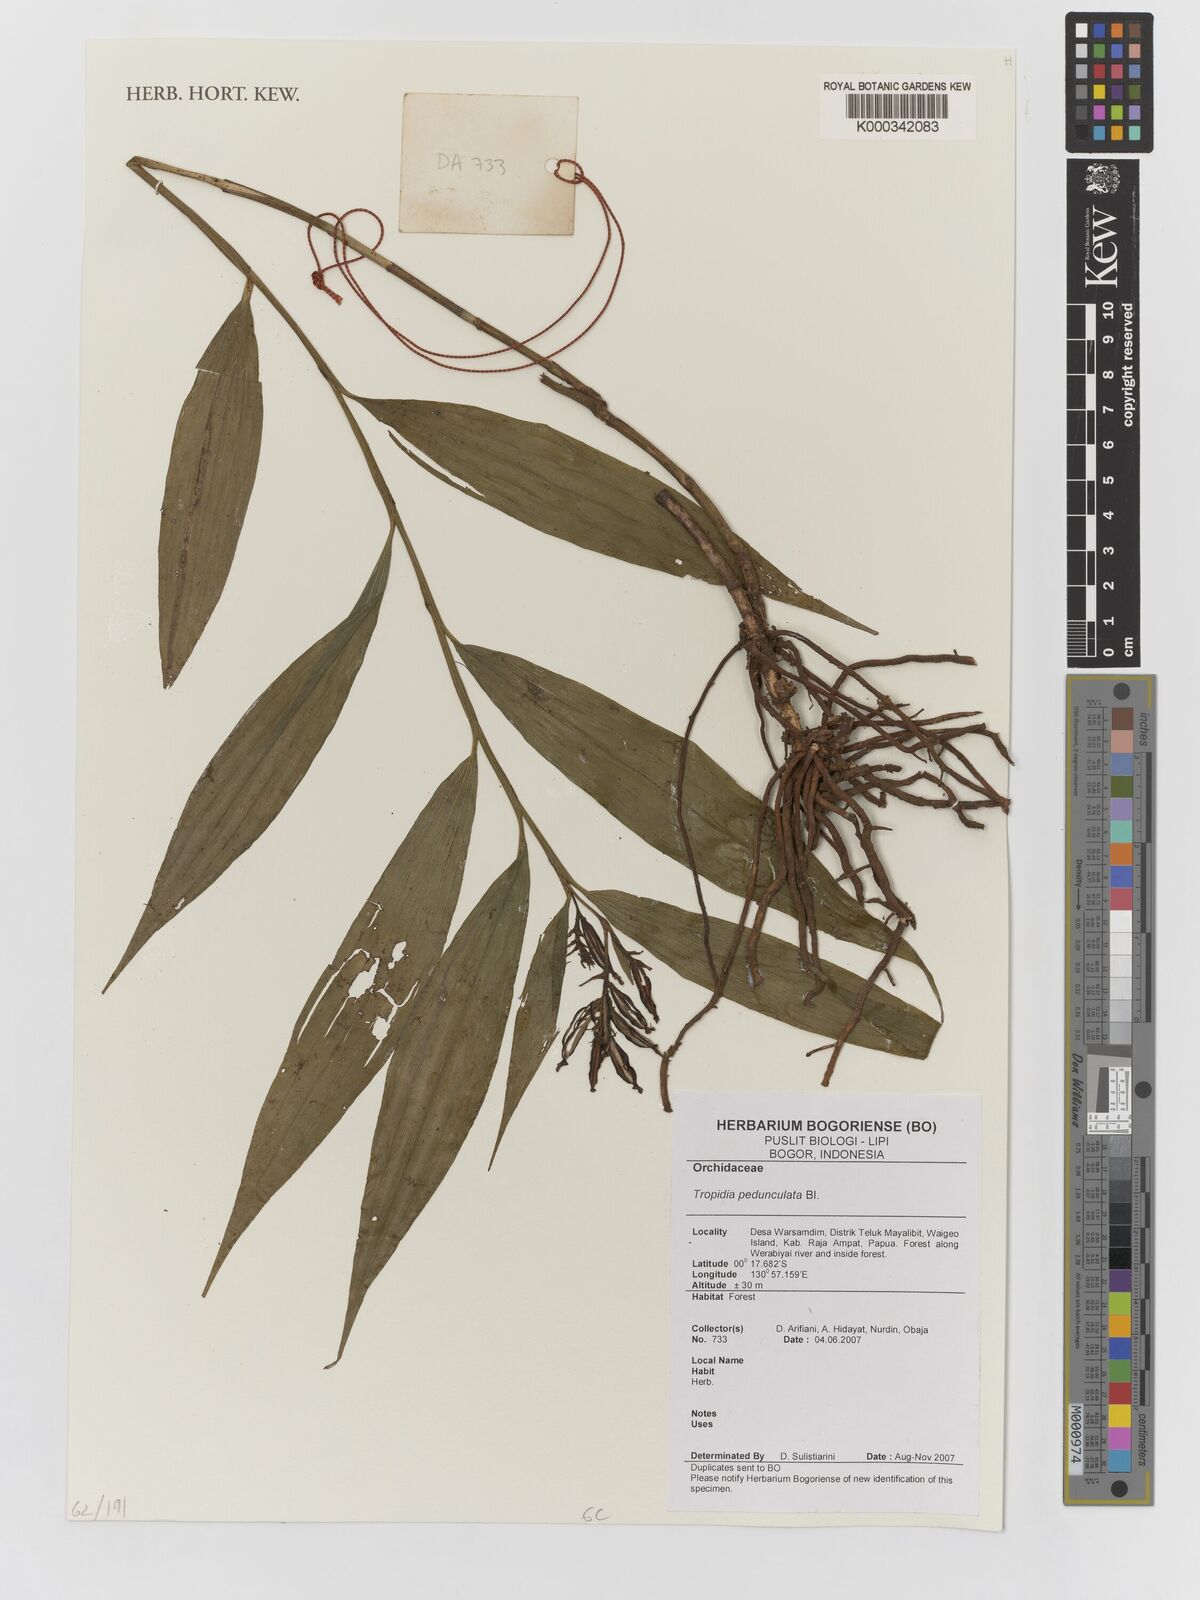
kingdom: Plantae
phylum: Tracheophyta
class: Liliopsida
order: Asparagales
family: Orchidaceae
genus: Tropidia
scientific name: Tropidia pedunculata
